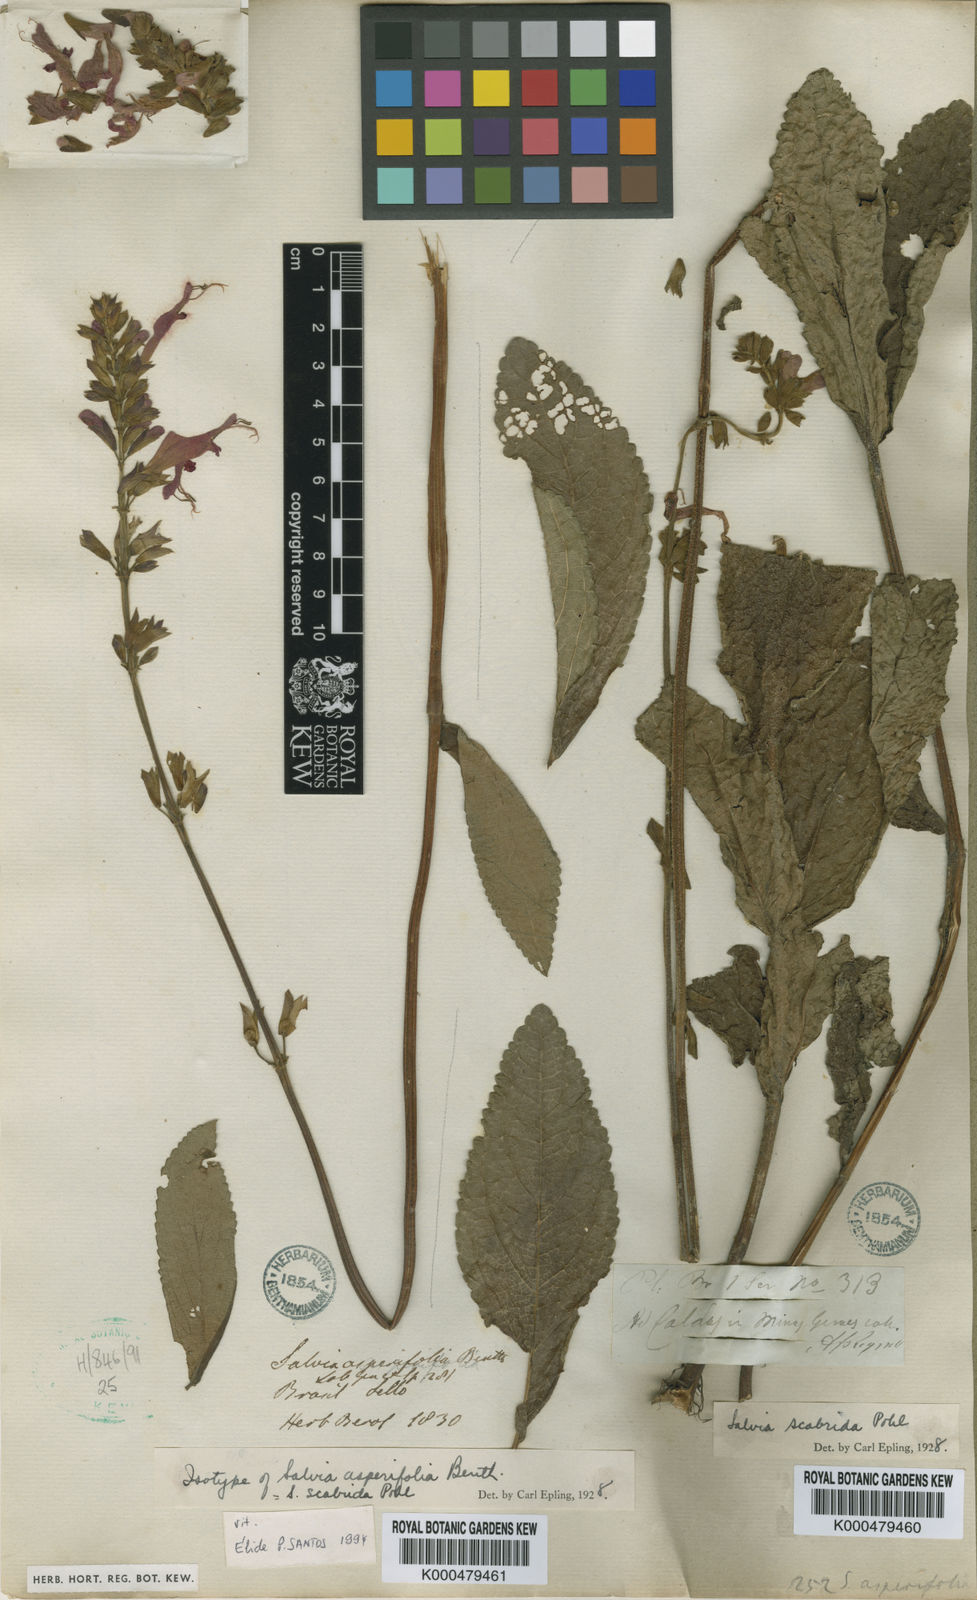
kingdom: Plantae
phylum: Tracheophyta
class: Magnoliopsida
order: Lamiales
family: Lamiaceae
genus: Salvia
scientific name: Salvia scabrida
